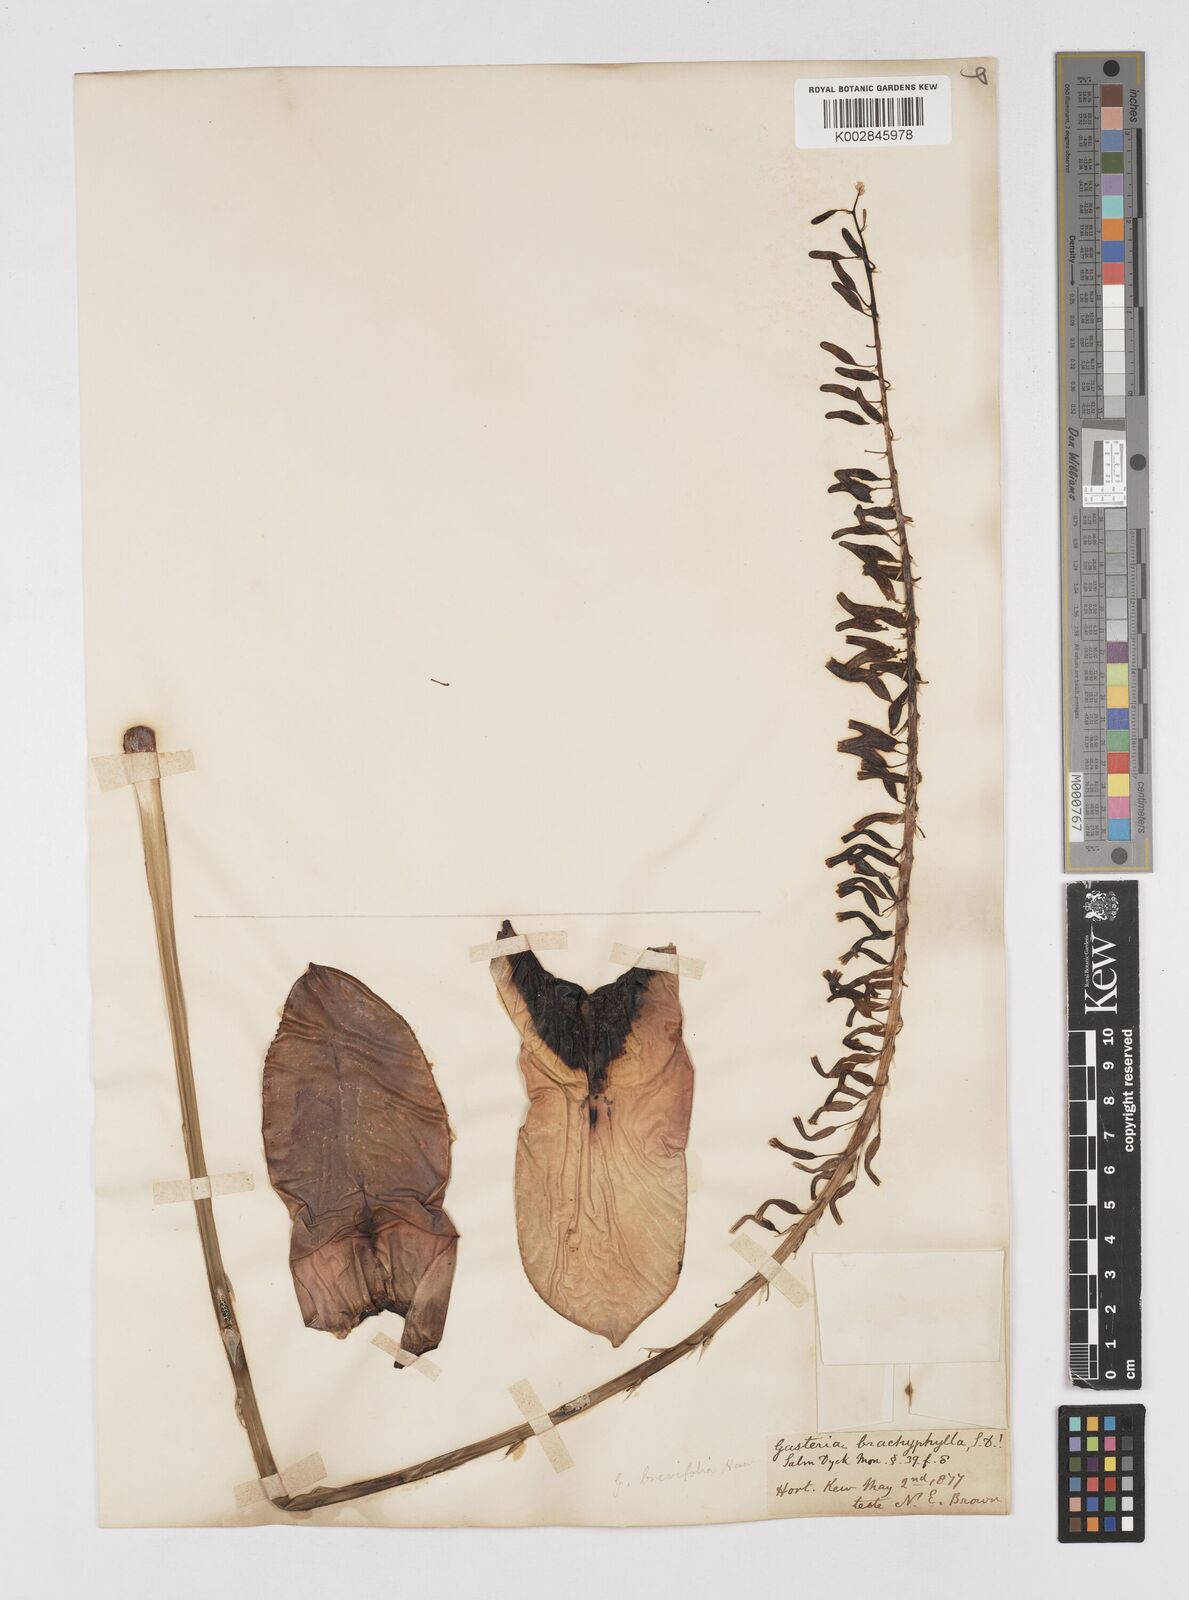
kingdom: Plantae
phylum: Tracheophyta
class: Liliopsida
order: Asparagales
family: Asphodelaceae
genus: Gasteria
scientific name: Gasteria brevifolia
